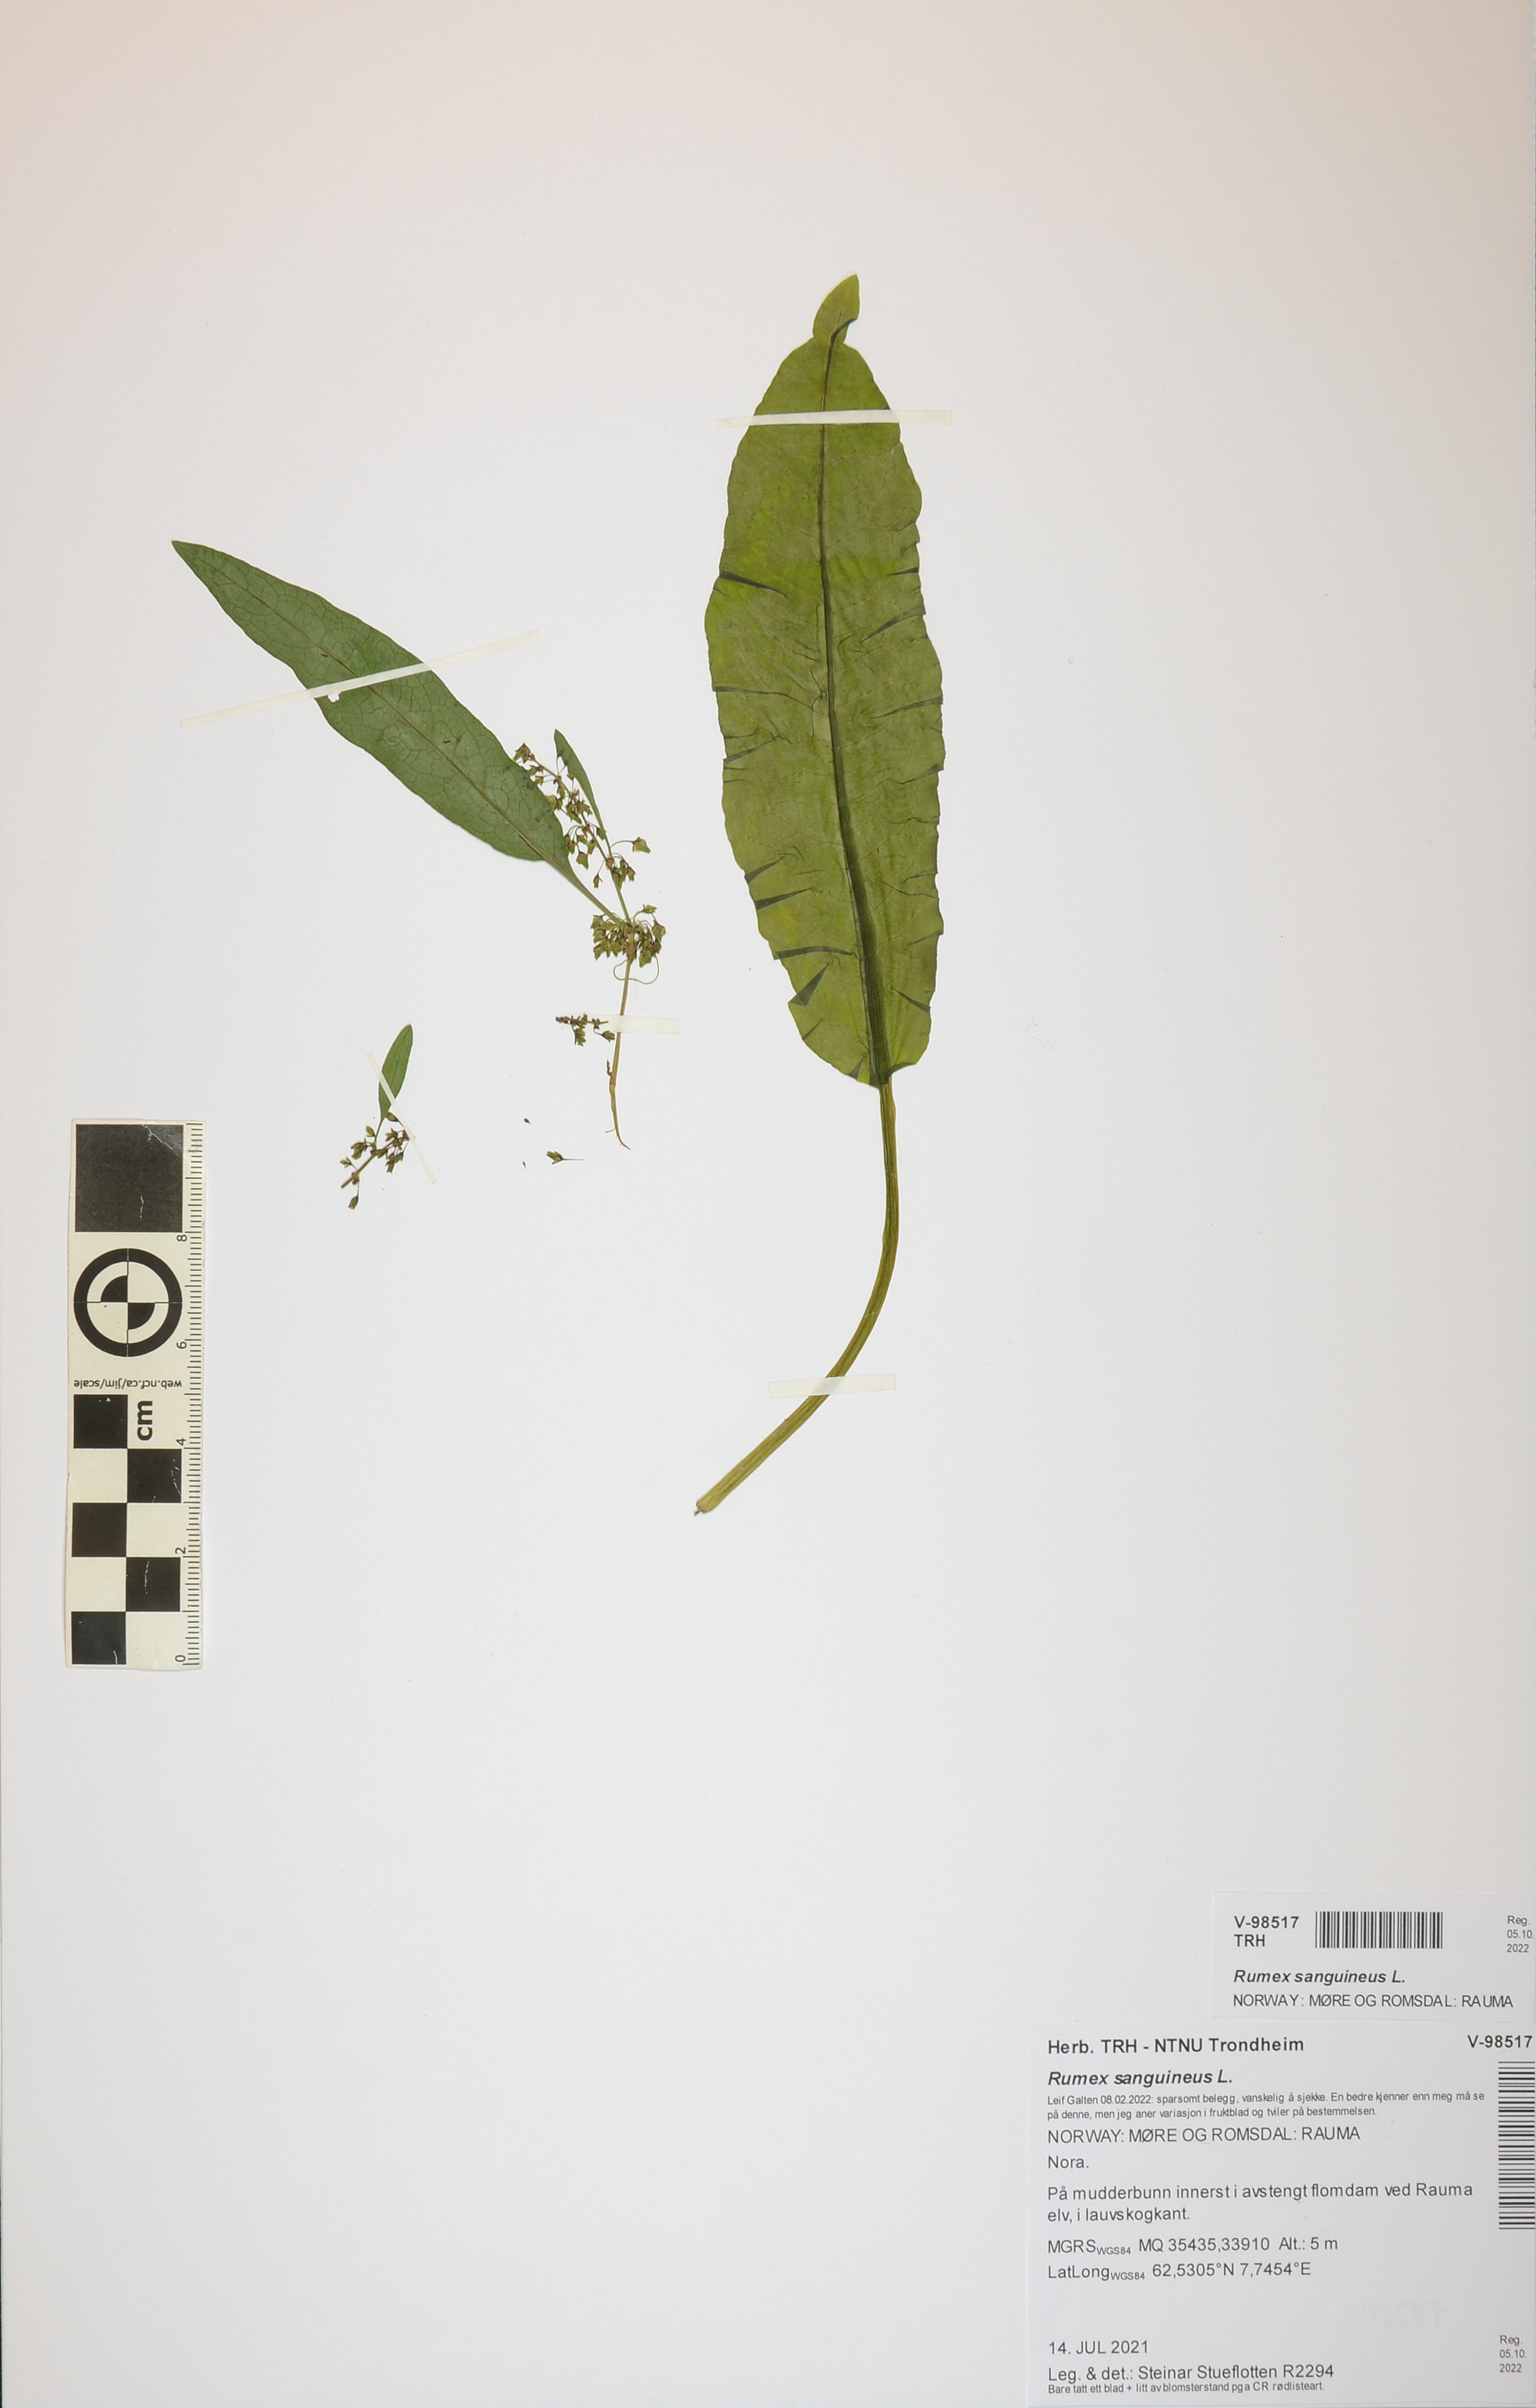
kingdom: Plantae
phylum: Tracheophyta
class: Magnoliopsida
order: Caryophyllales
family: Polygonaceae
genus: Rumex
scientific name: Rumex sanguineus
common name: Wood dock
